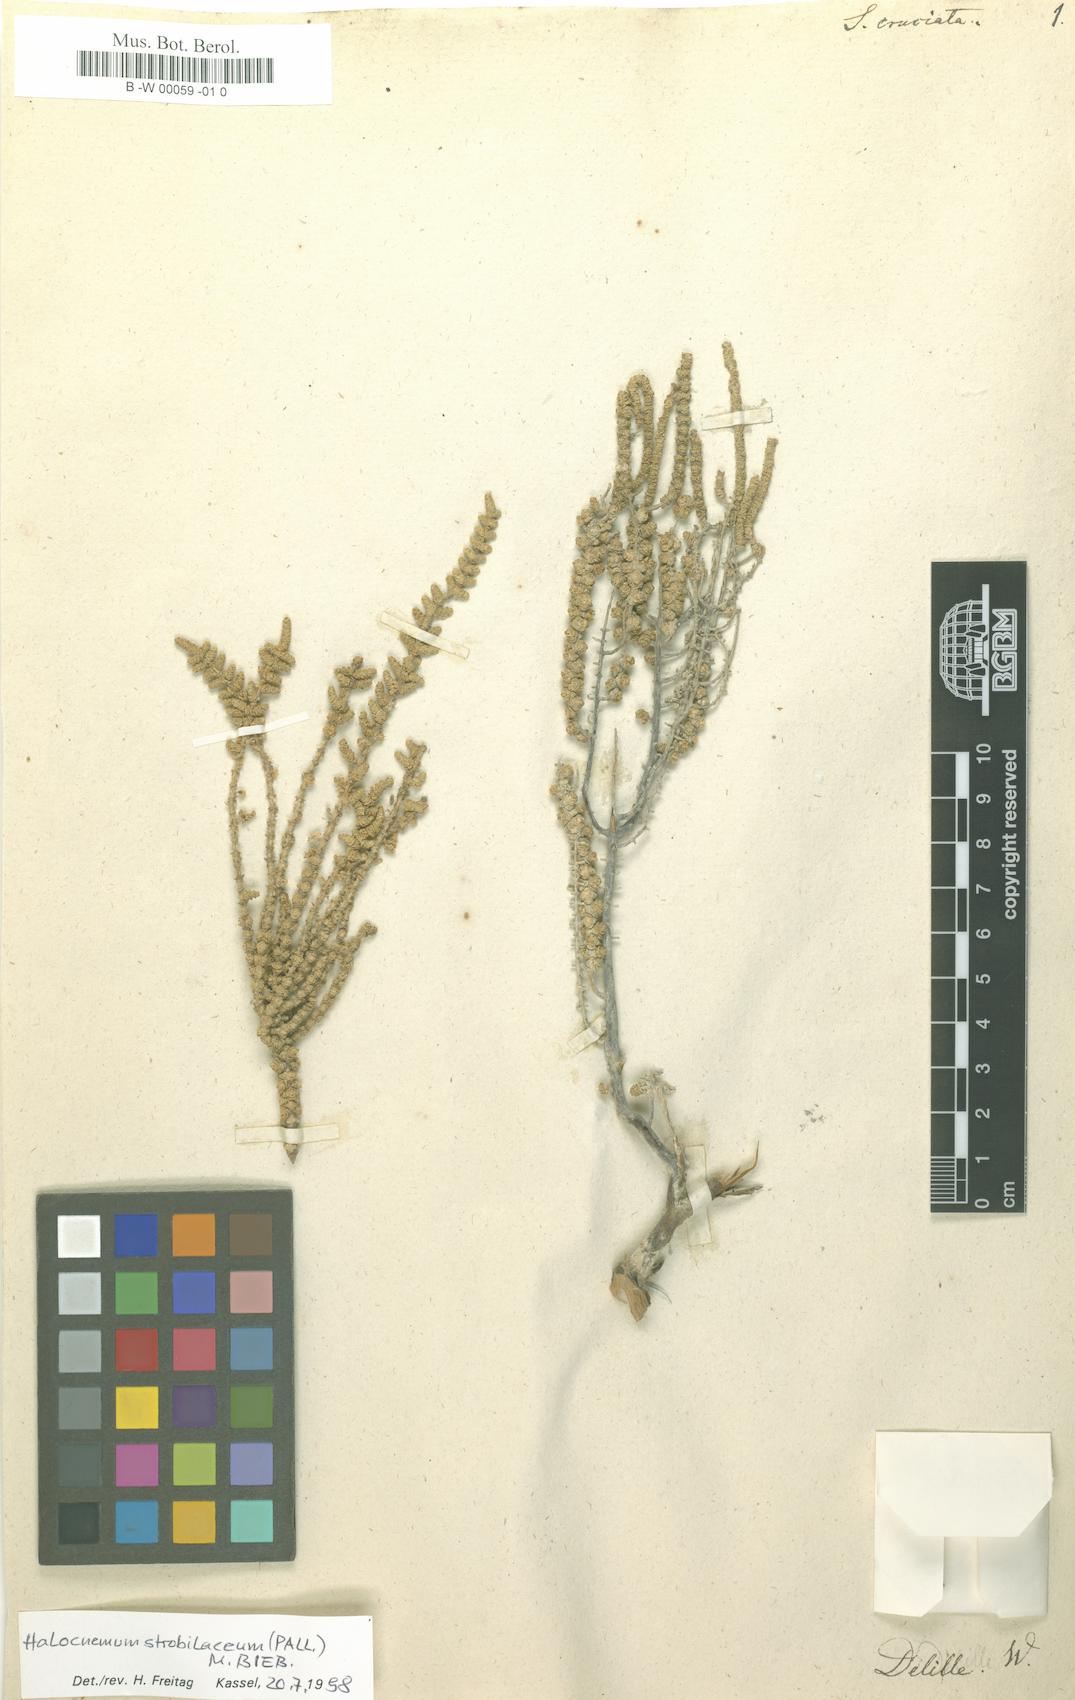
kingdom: Plantae
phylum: Tracheophyta
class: Magnoliopsida
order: Caryophyllales
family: Amaranthaceae
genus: Halocnemum
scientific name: Halocnemum strobilaceum
